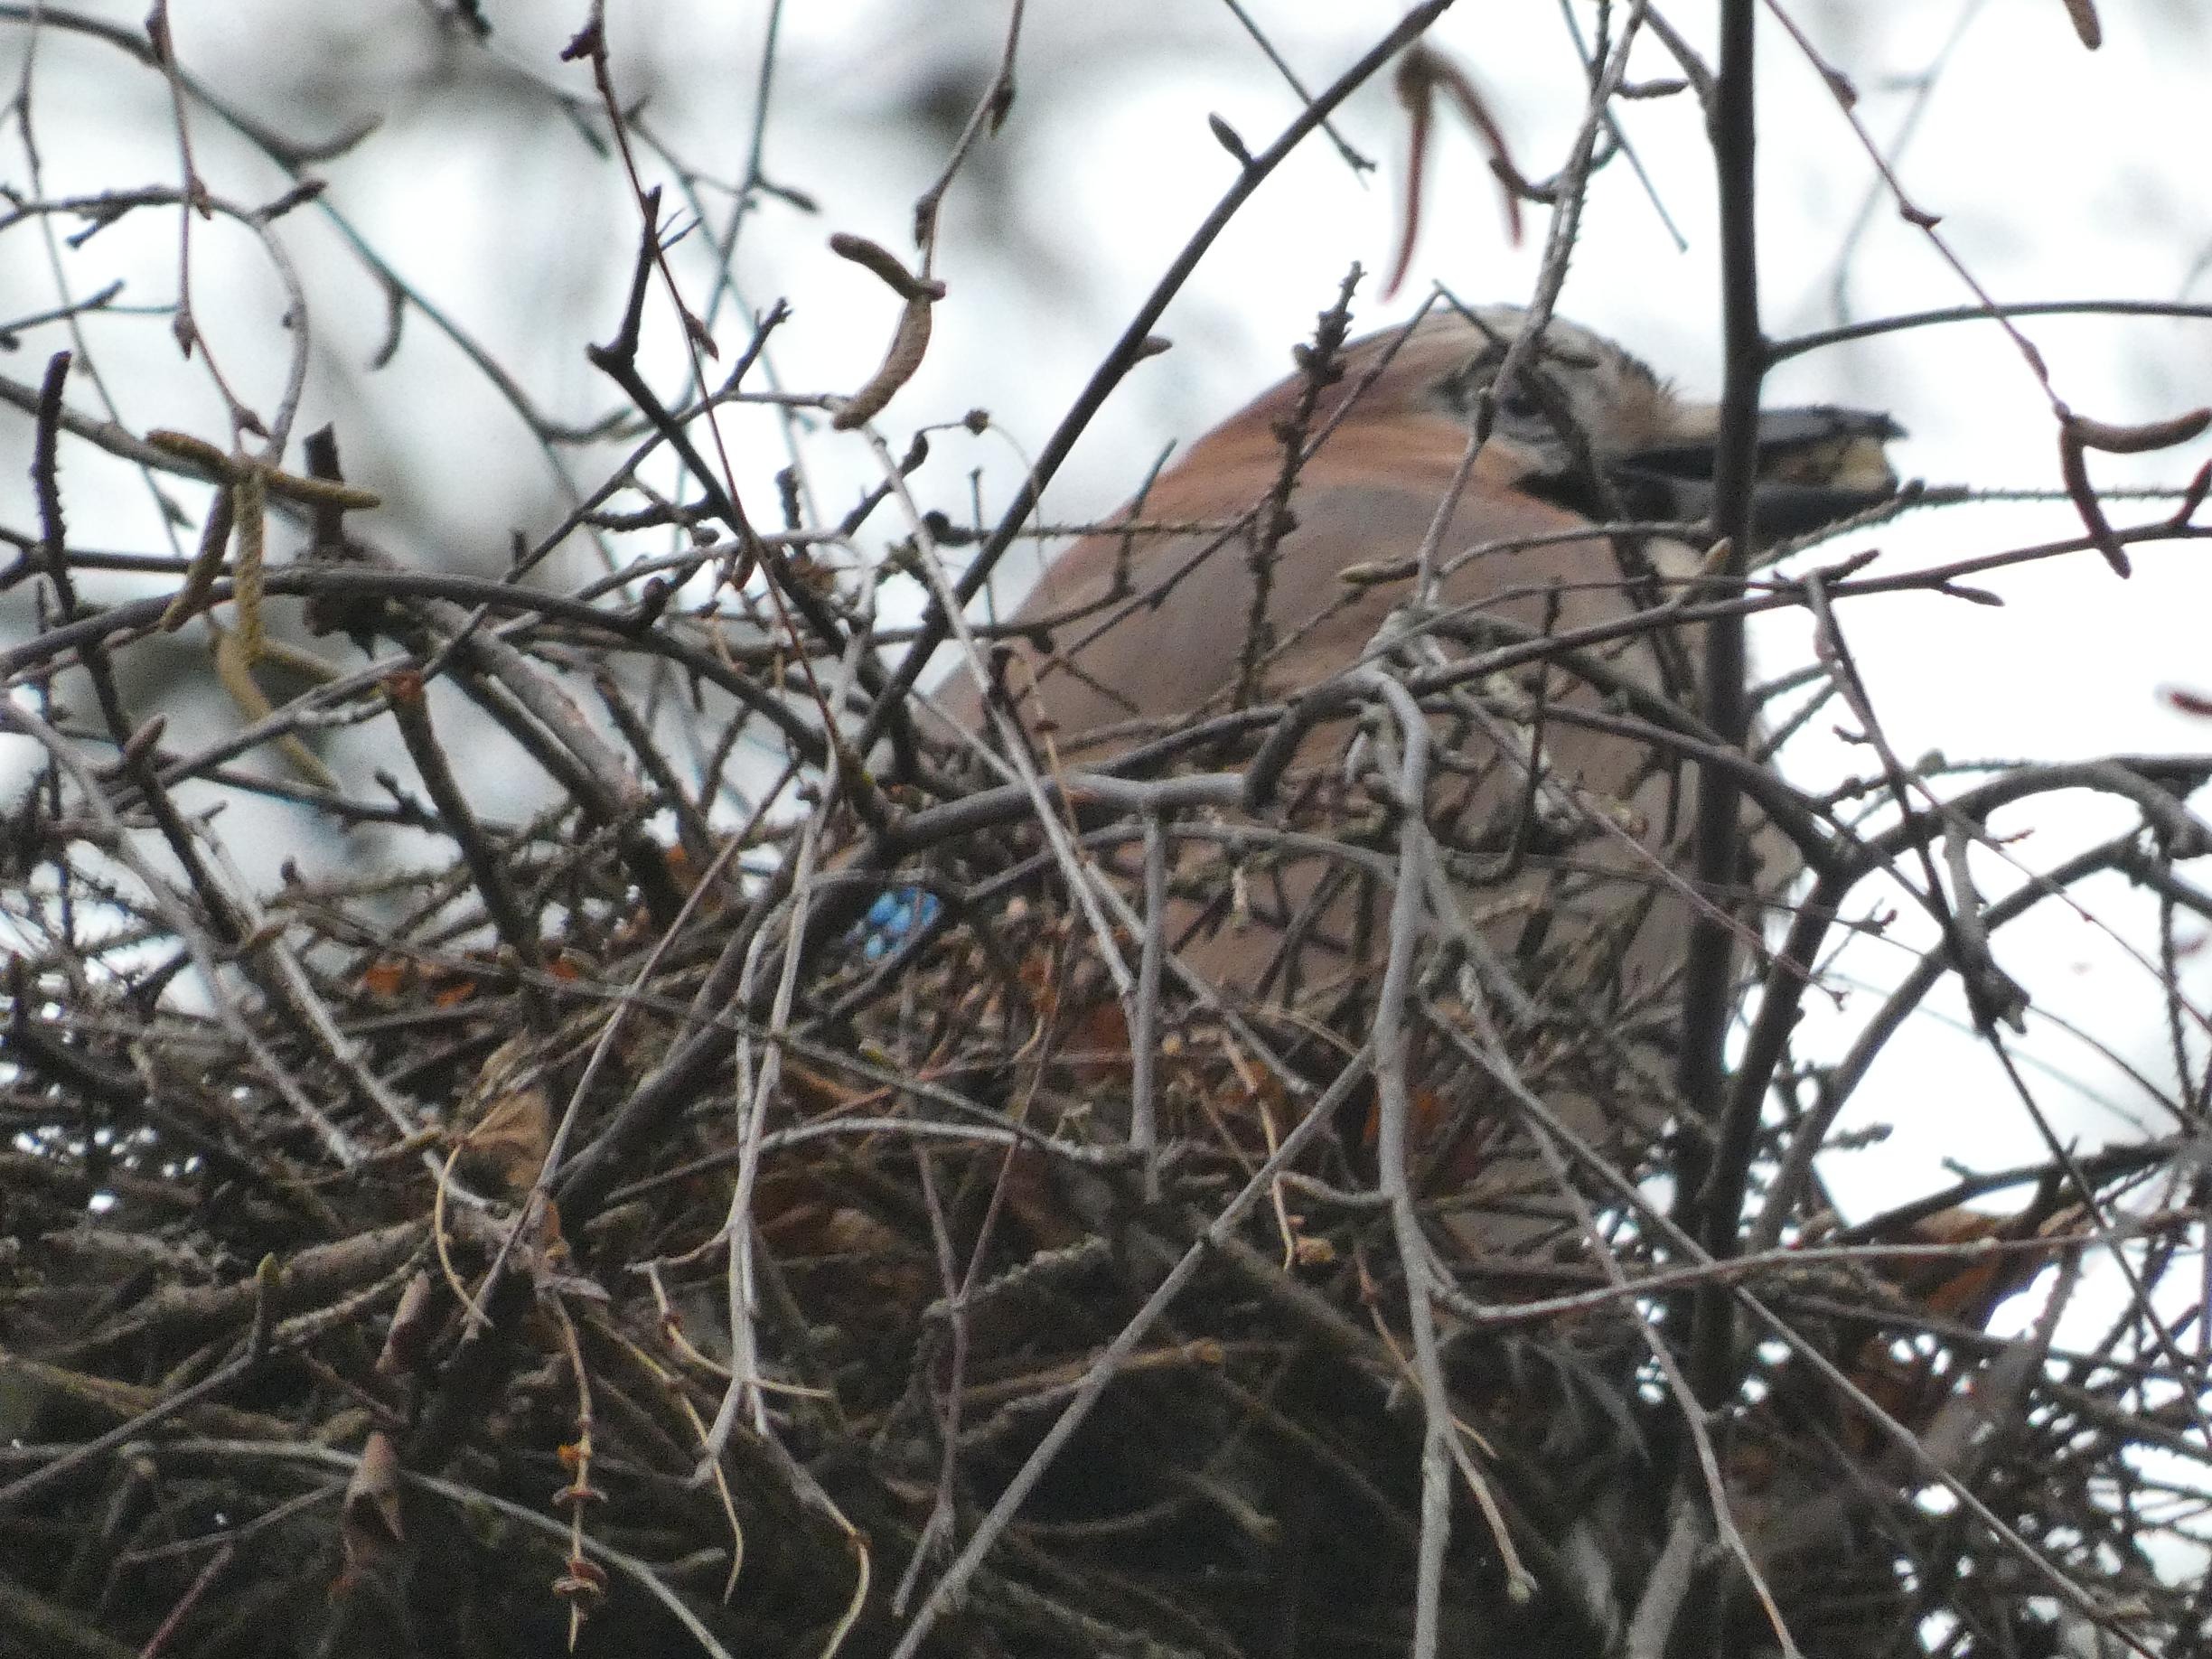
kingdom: Animalia
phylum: Chordata
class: Aves
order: Passeriformes
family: Corvidae
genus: Garrulus
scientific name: Garrulus glandarius
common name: Skovskade
